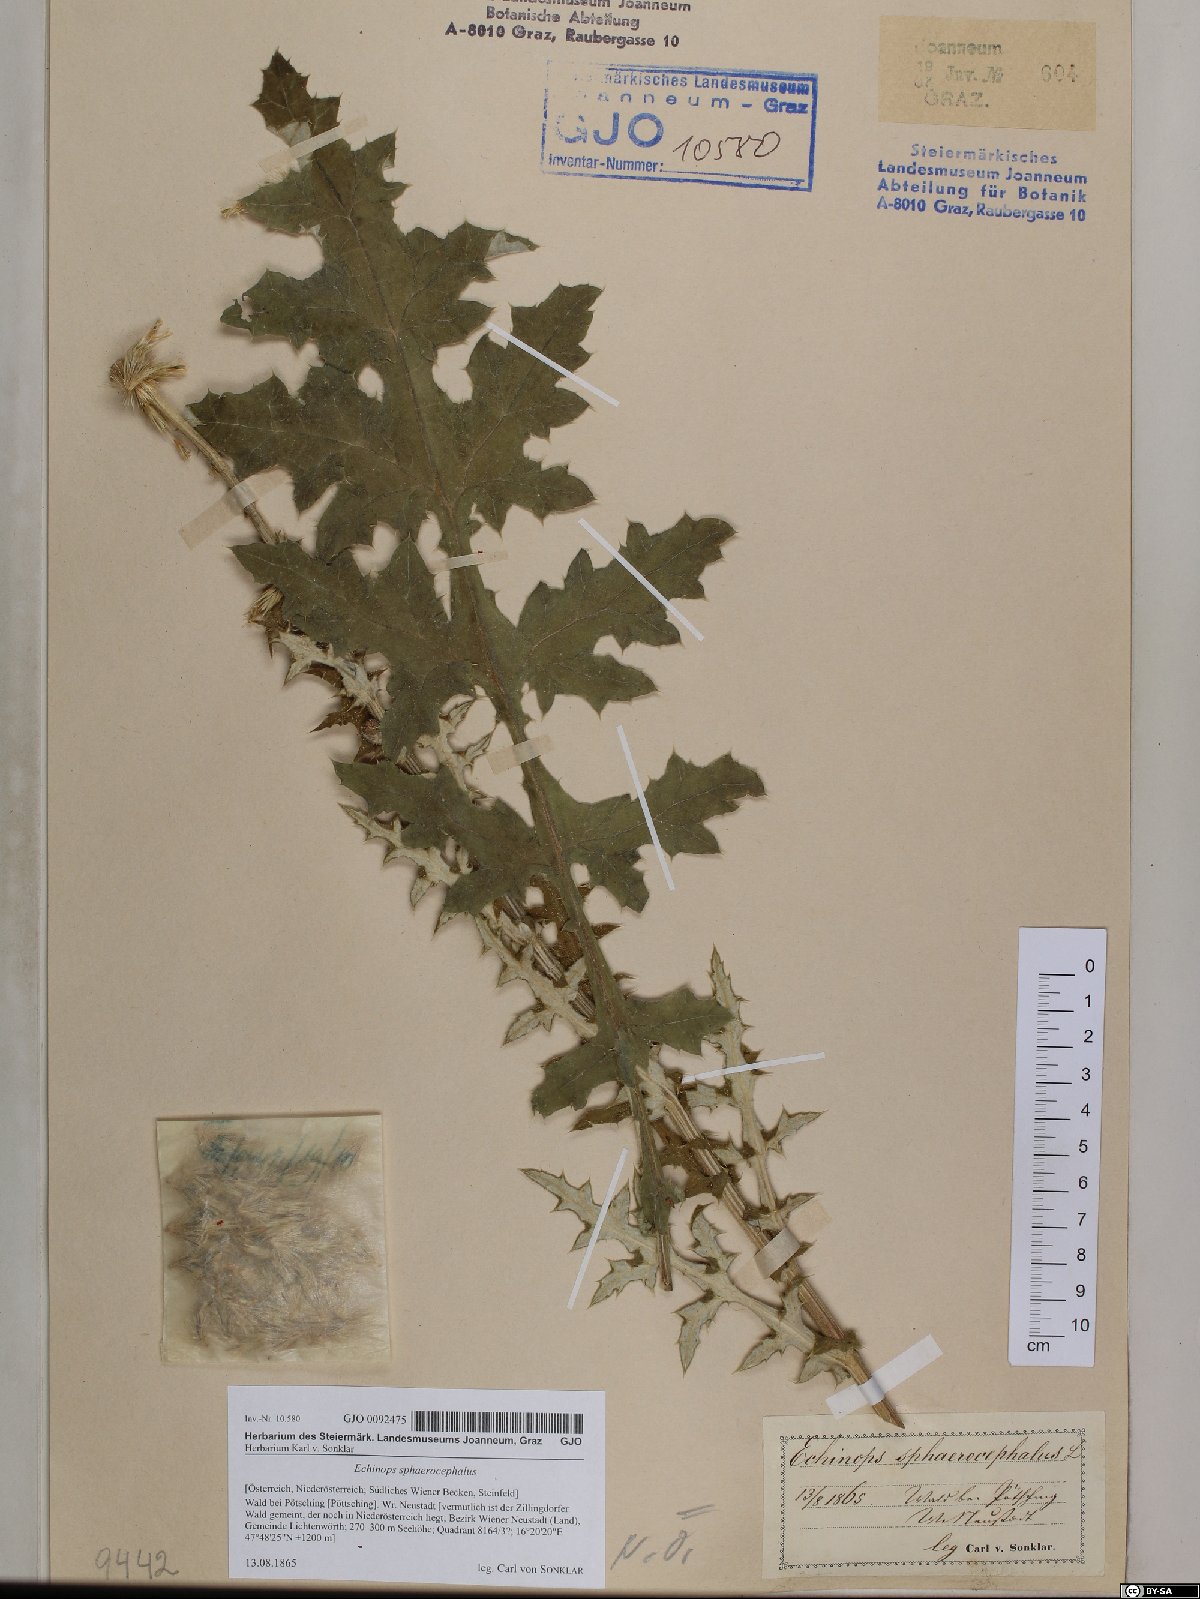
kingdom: Plantae
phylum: Tracheophyta
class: Magnoliopsida
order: Asterales
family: Asteraceae
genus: Echinops
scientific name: Echinops sphaerocephalus
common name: Glandular globe-thistle
